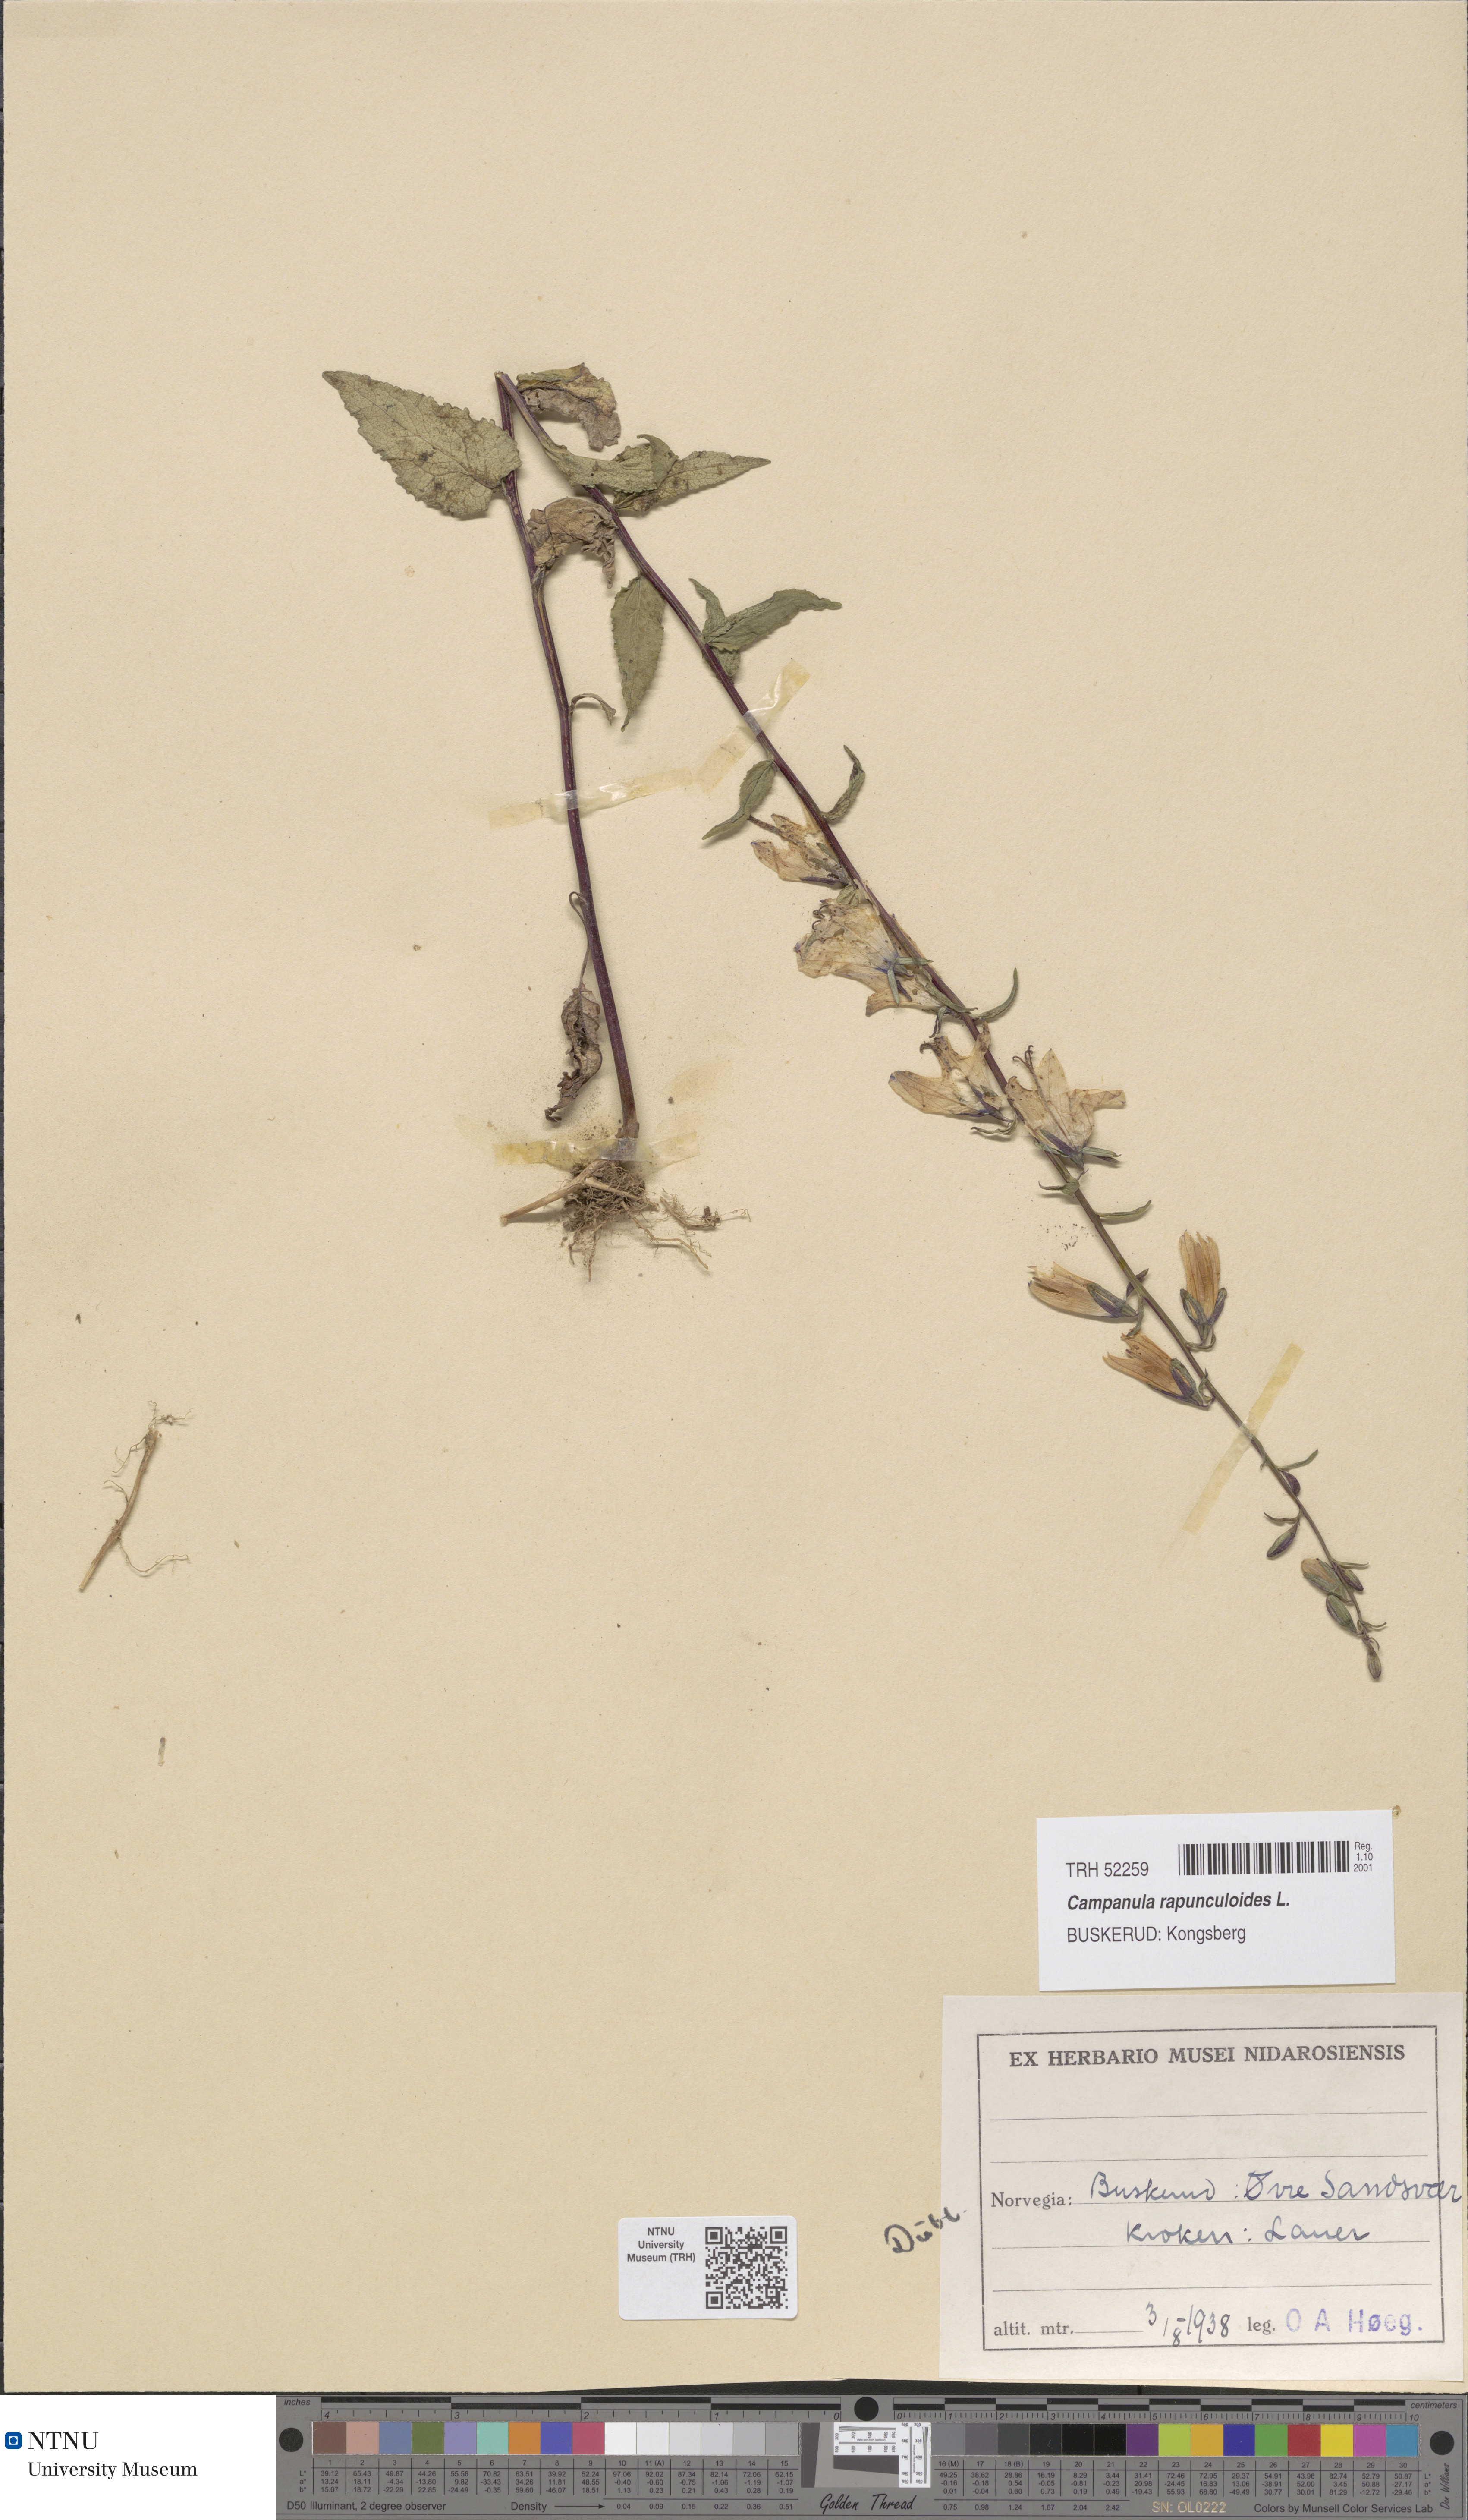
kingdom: Plantae
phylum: Tracheophyta
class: Magnoliopsida
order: Asterales
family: Campanulaceae
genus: Campanula
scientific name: Campanula rapunculoides
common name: Creeping bellflower
